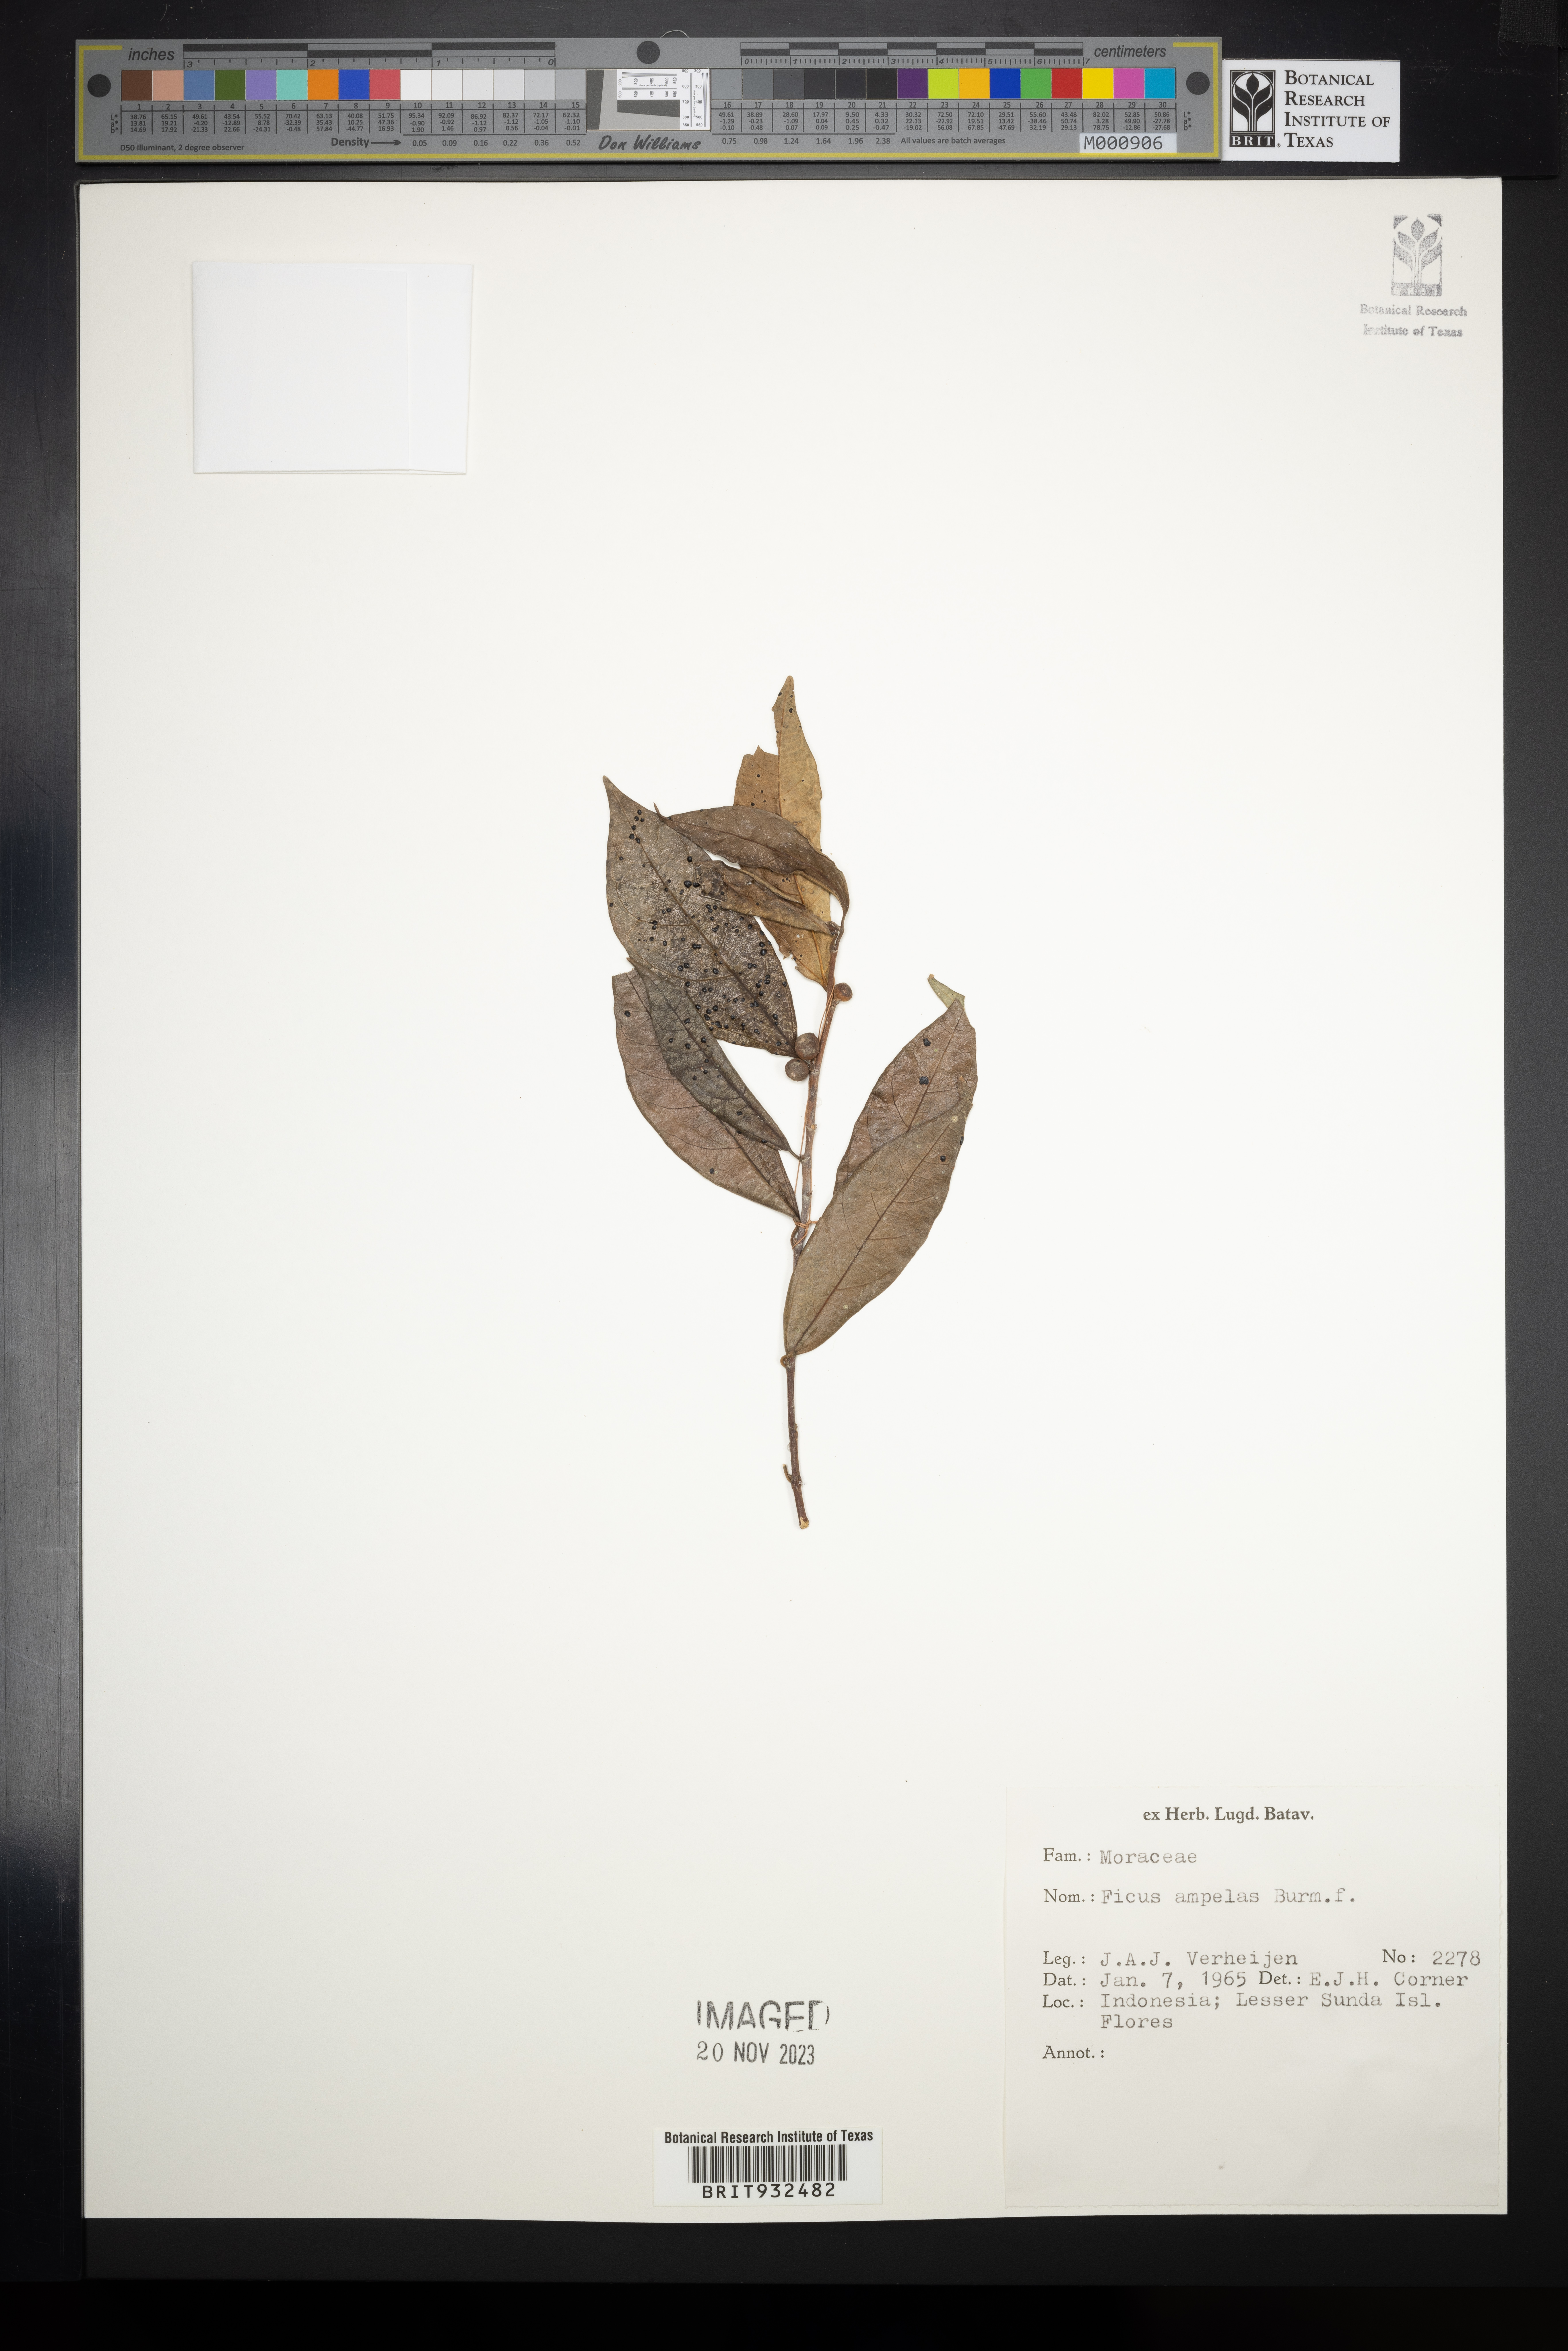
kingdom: Plantae
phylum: Tracheophyta
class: Magnoliopsida
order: Rosales
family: Moraceae
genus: Ficus
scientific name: Ficus ampelos
